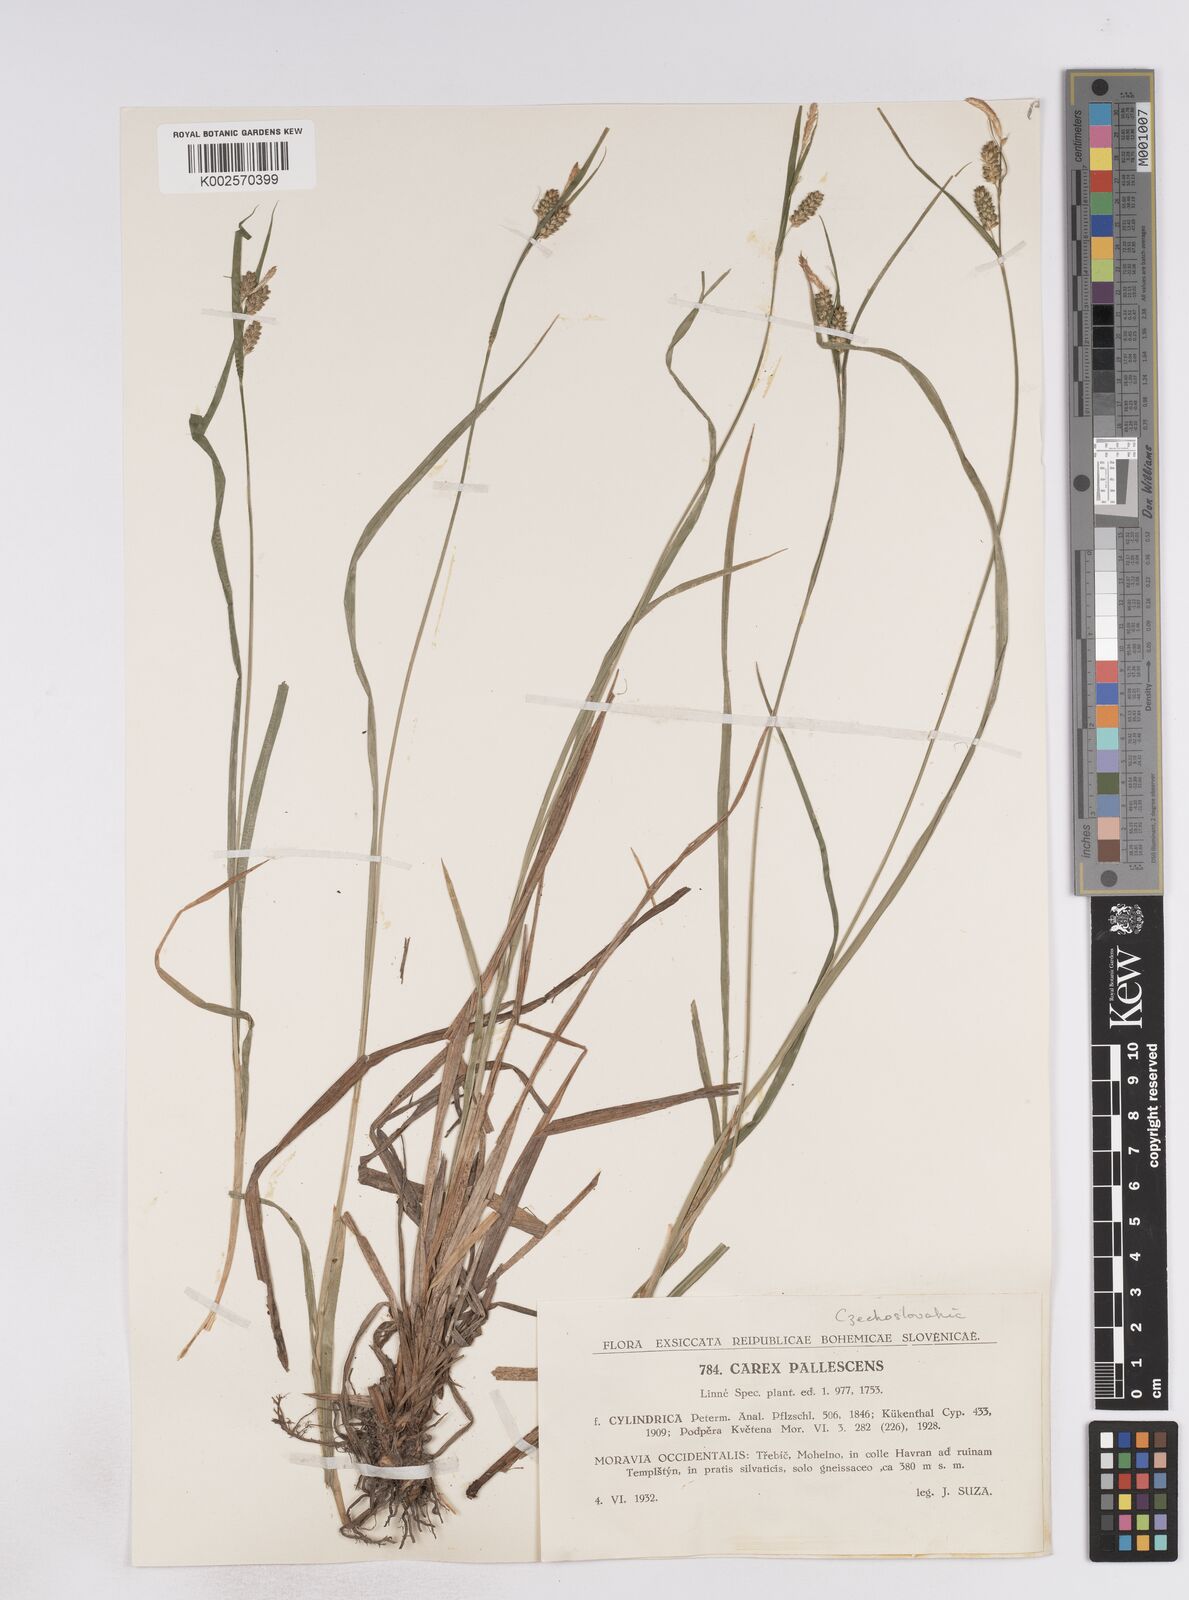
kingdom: Plantae
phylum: Tracheophyta
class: Liliopsida
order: Poales
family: Cyperaceae
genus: Carex
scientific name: Carex pallescens
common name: Pale sedge
